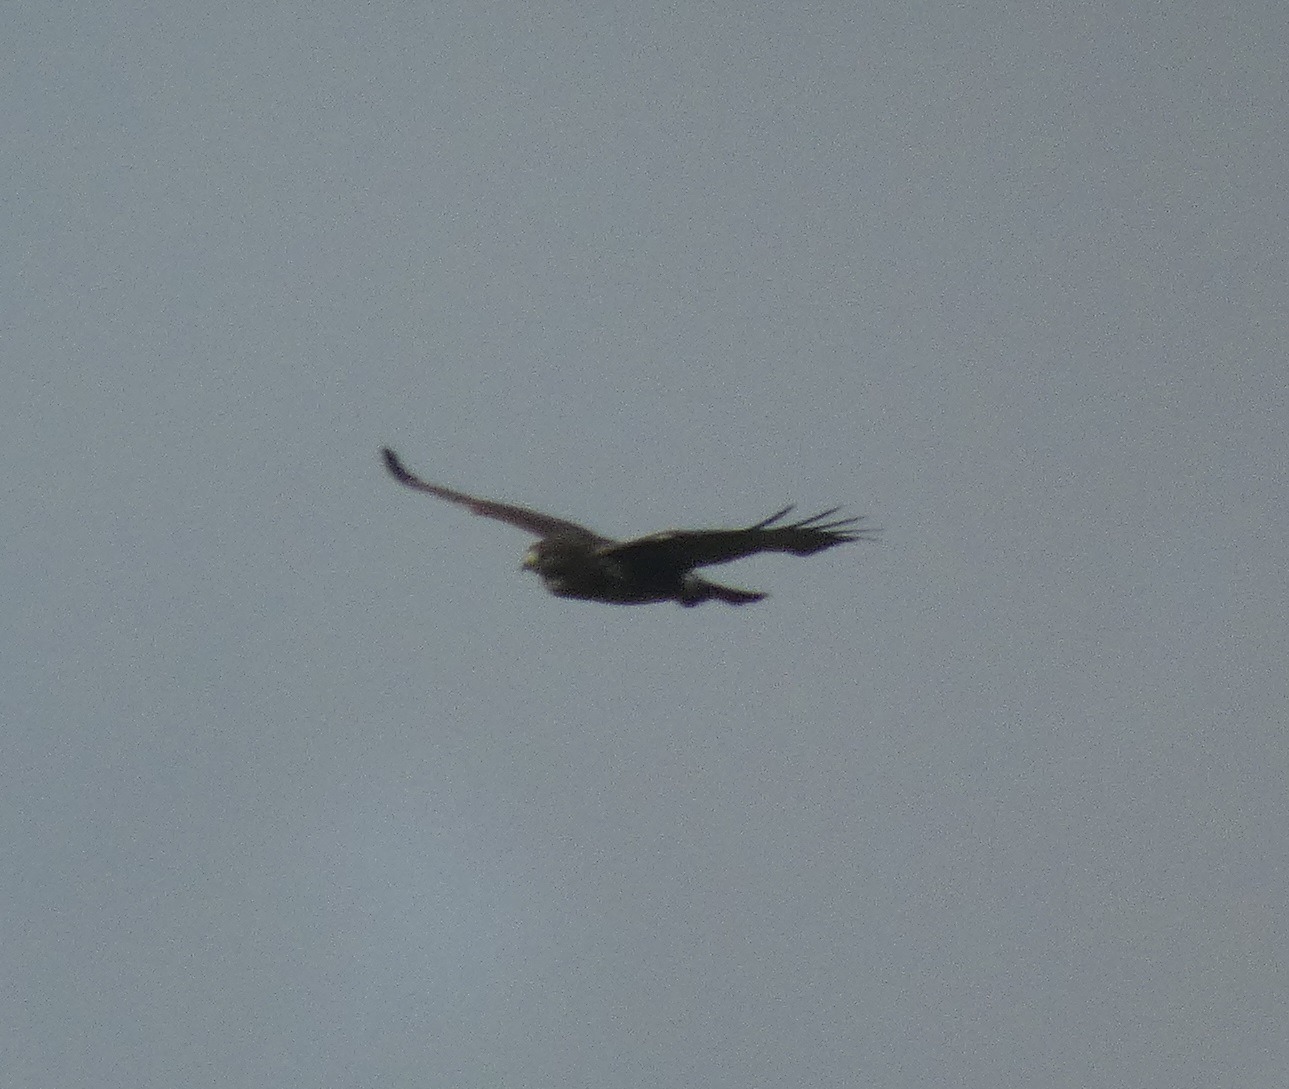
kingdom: Animalia
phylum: Chordata
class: Aves
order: Accipitriformes
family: Accipitridae
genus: Buteo
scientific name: Buteo buteo
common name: Musvåge
